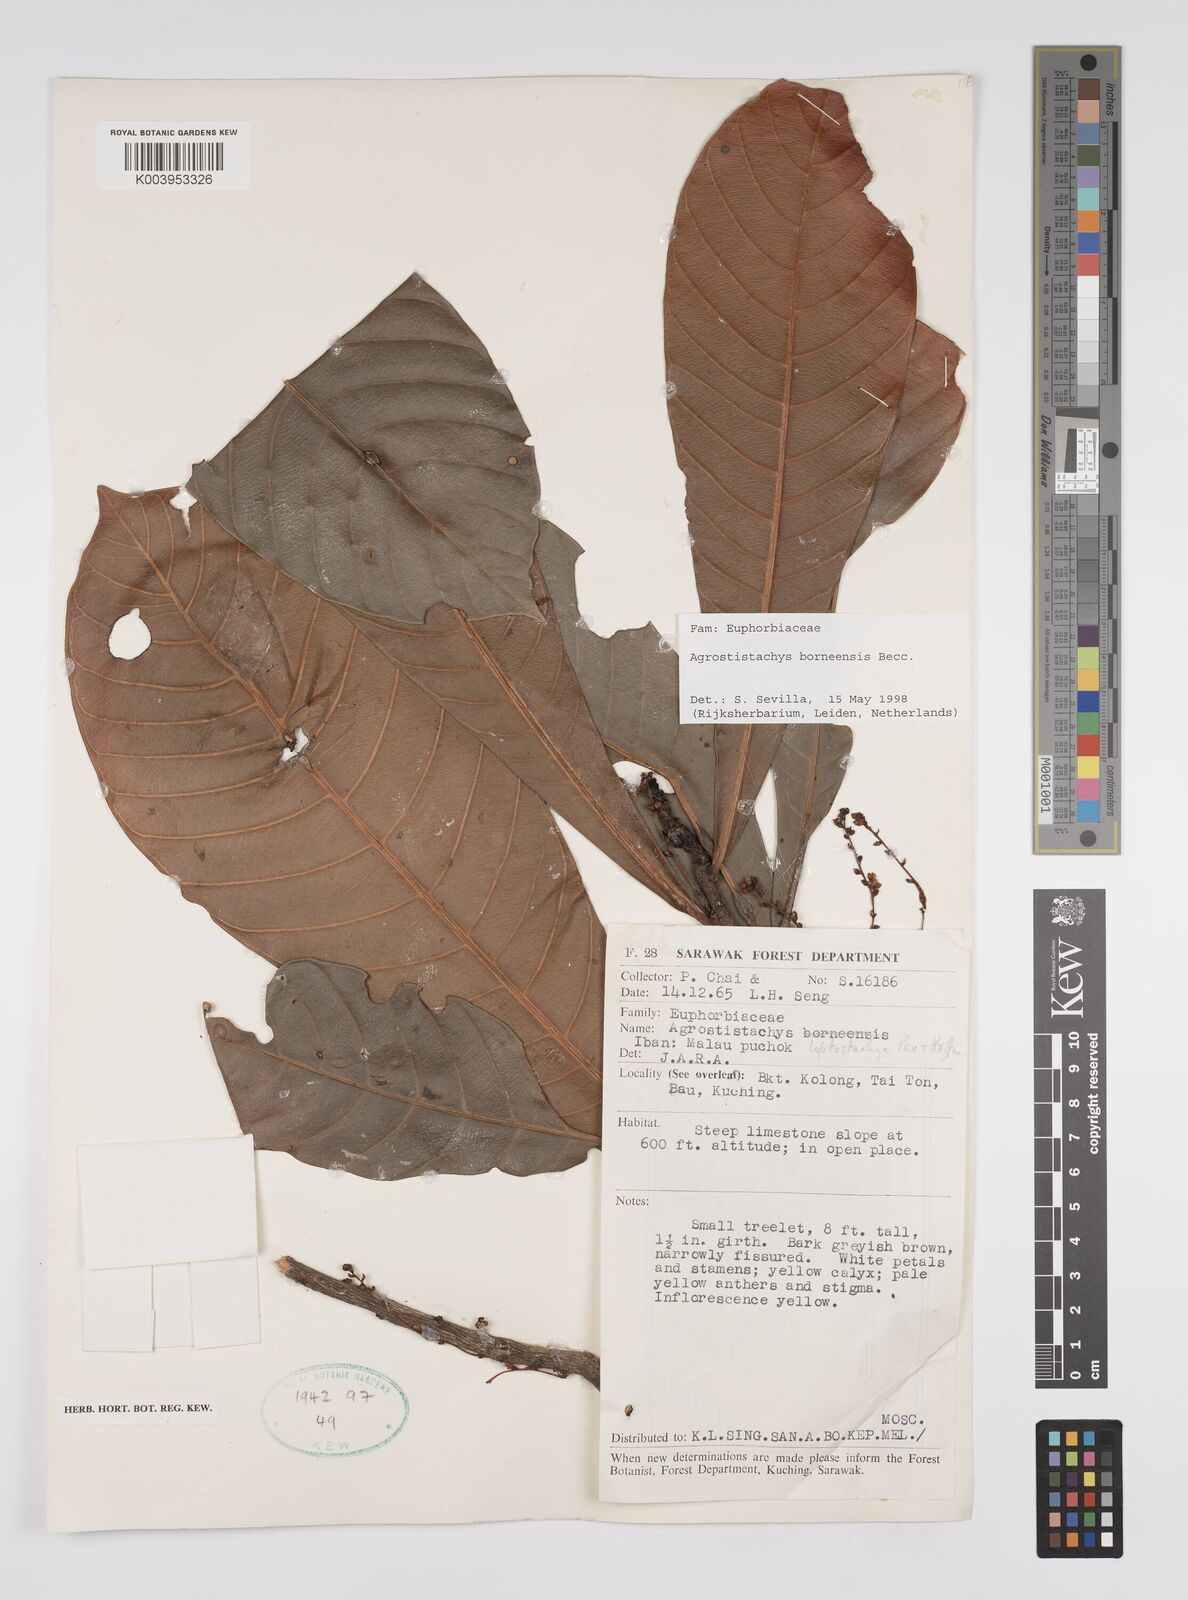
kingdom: Plantae
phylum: Tracheophyta
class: Magnoliopsida
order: Malpighiales
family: Euphorbiaceae
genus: Agrostistachys
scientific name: Agrostistachys borneensis
